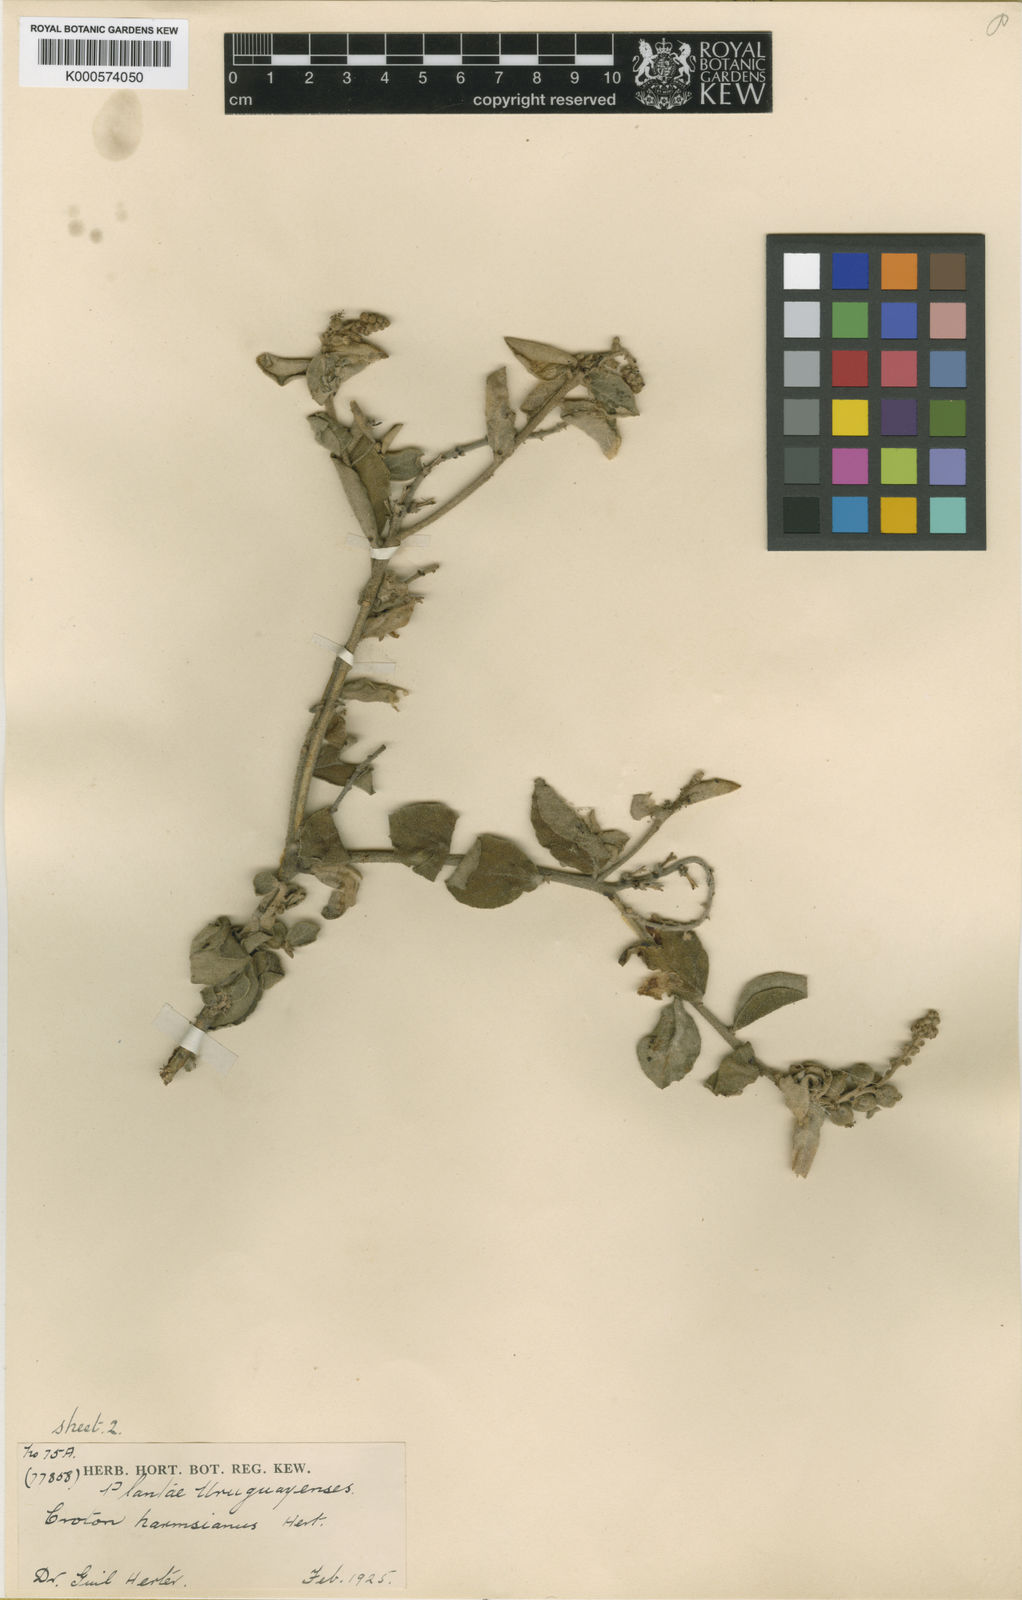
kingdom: Plantae
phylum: Tracheophyta
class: Magnoliopsida
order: Malpighiales
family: Euphorbiaceae
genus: Croton
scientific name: Croton harmsianus
